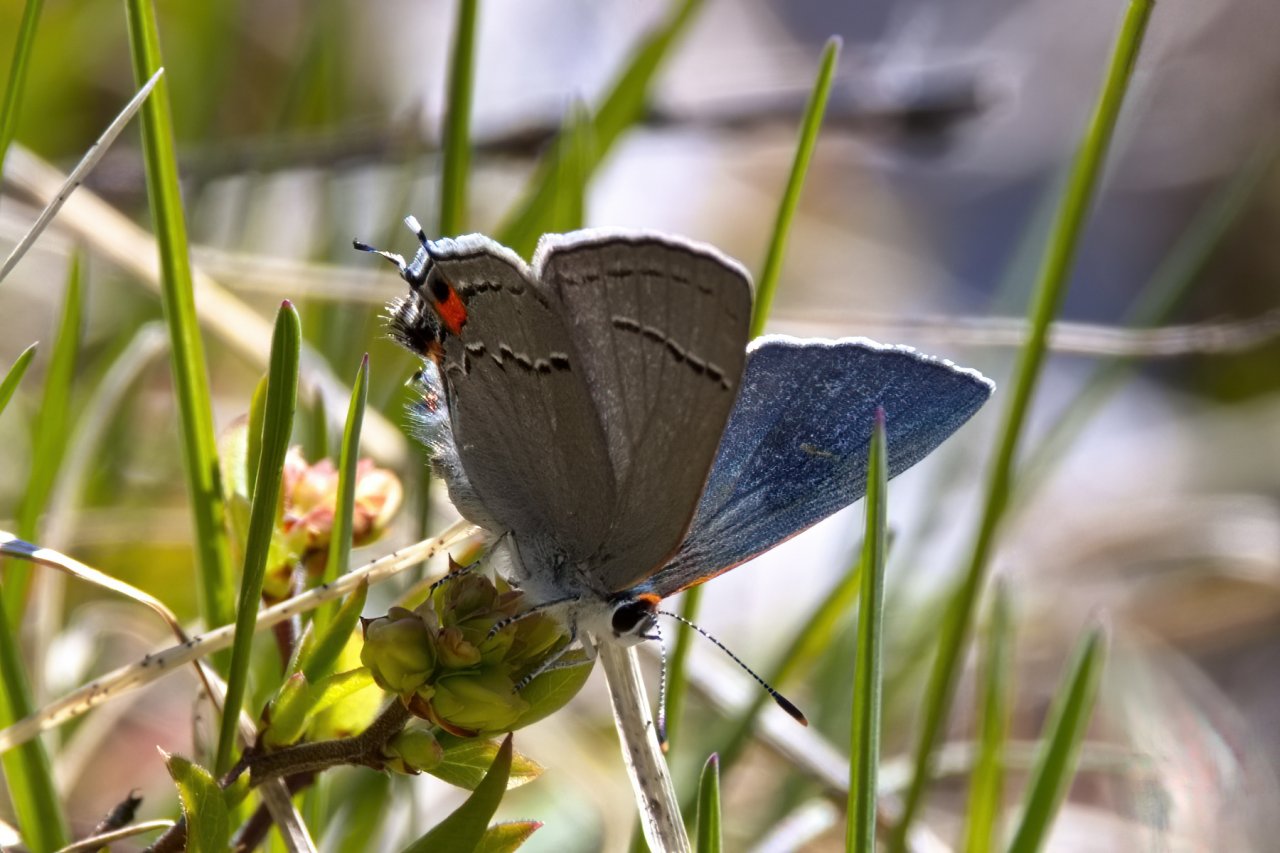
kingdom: Animalia
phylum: Arthropoda
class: Insecta
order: Lepidoptera
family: Lycaenidae
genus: Strymon
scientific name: Strymon melinus
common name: Gray Hairstreak
